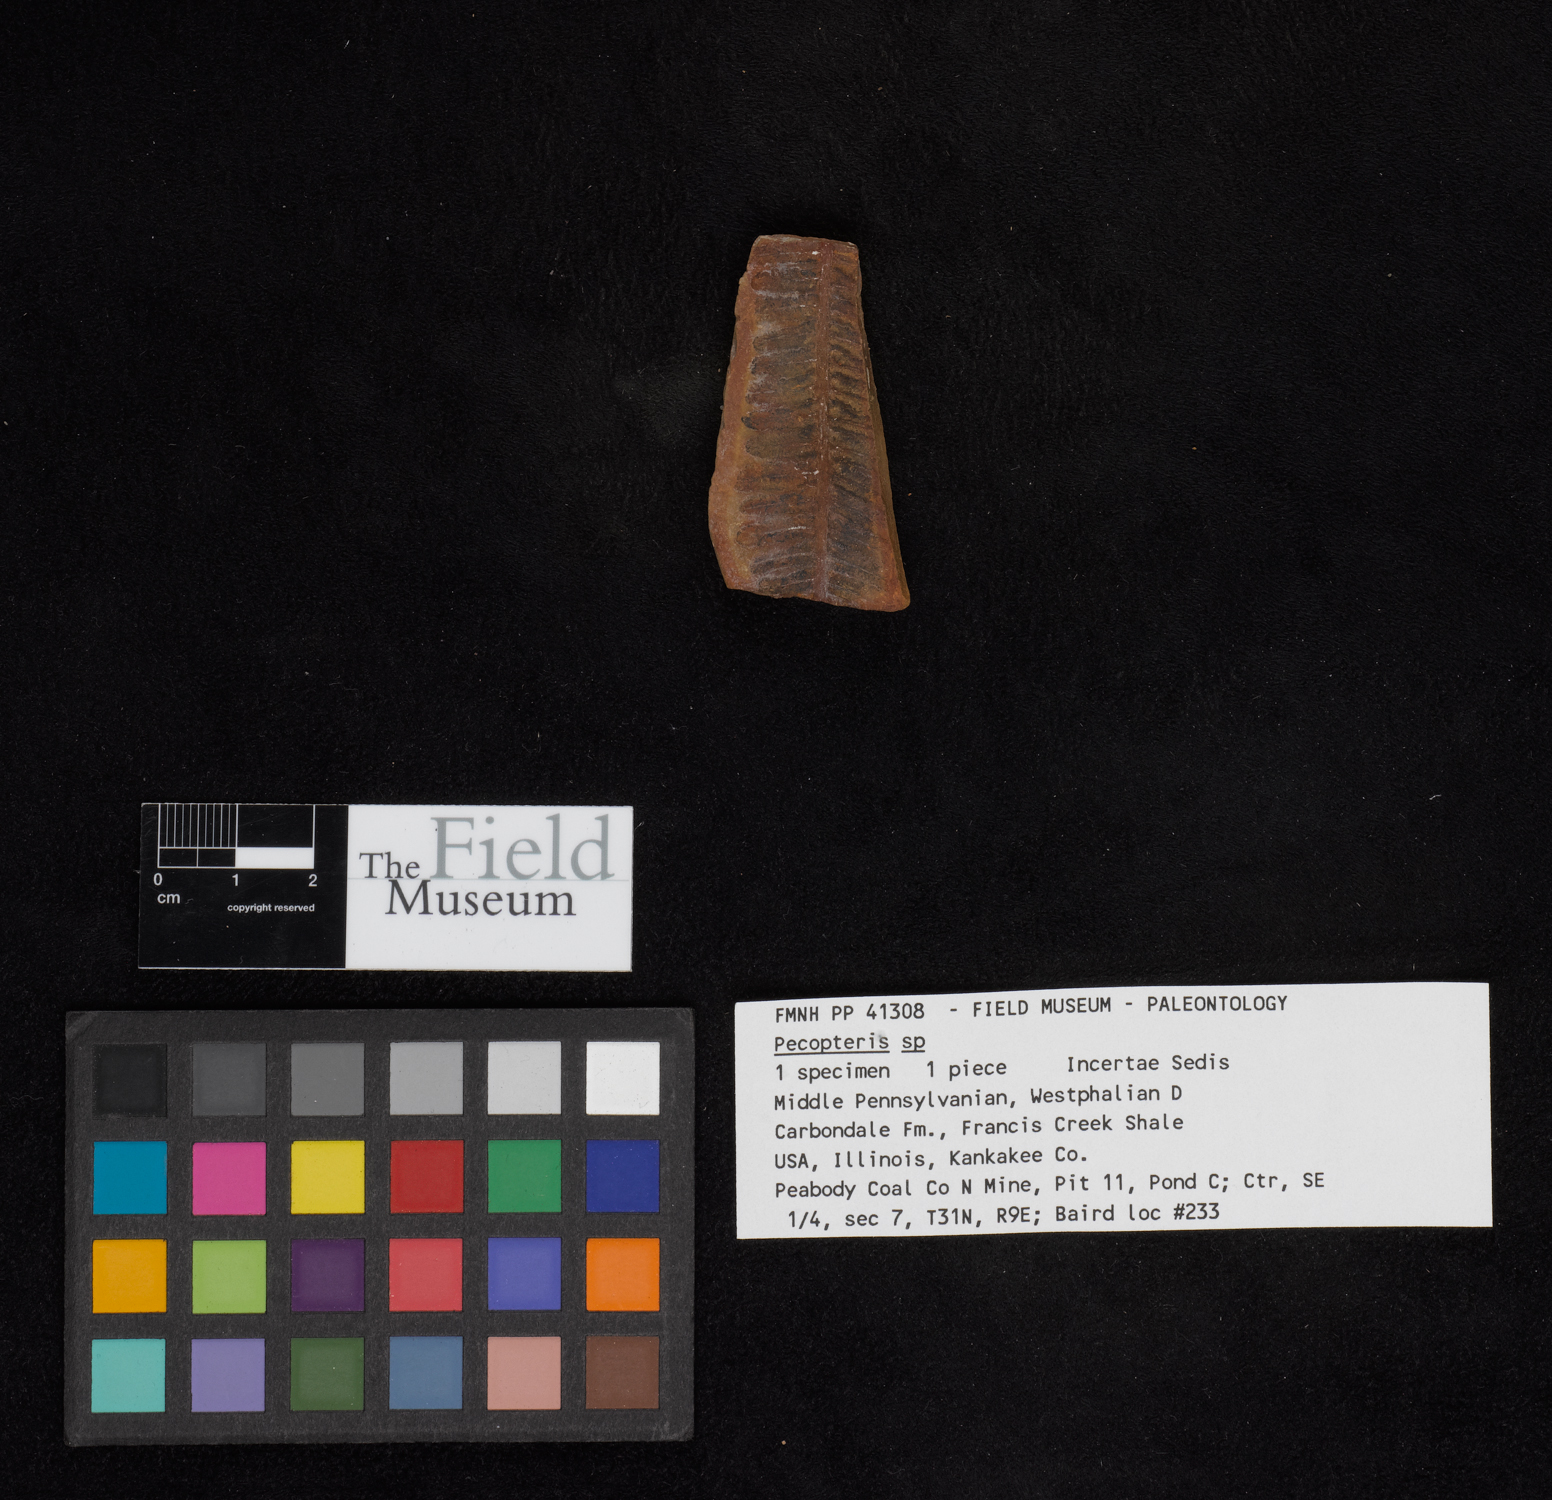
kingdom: Plantae
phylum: Tracheophyta
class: Polypodiopsida
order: Marattiales
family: Asterothecaceae
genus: Pecopteris
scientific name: Pecopteris
